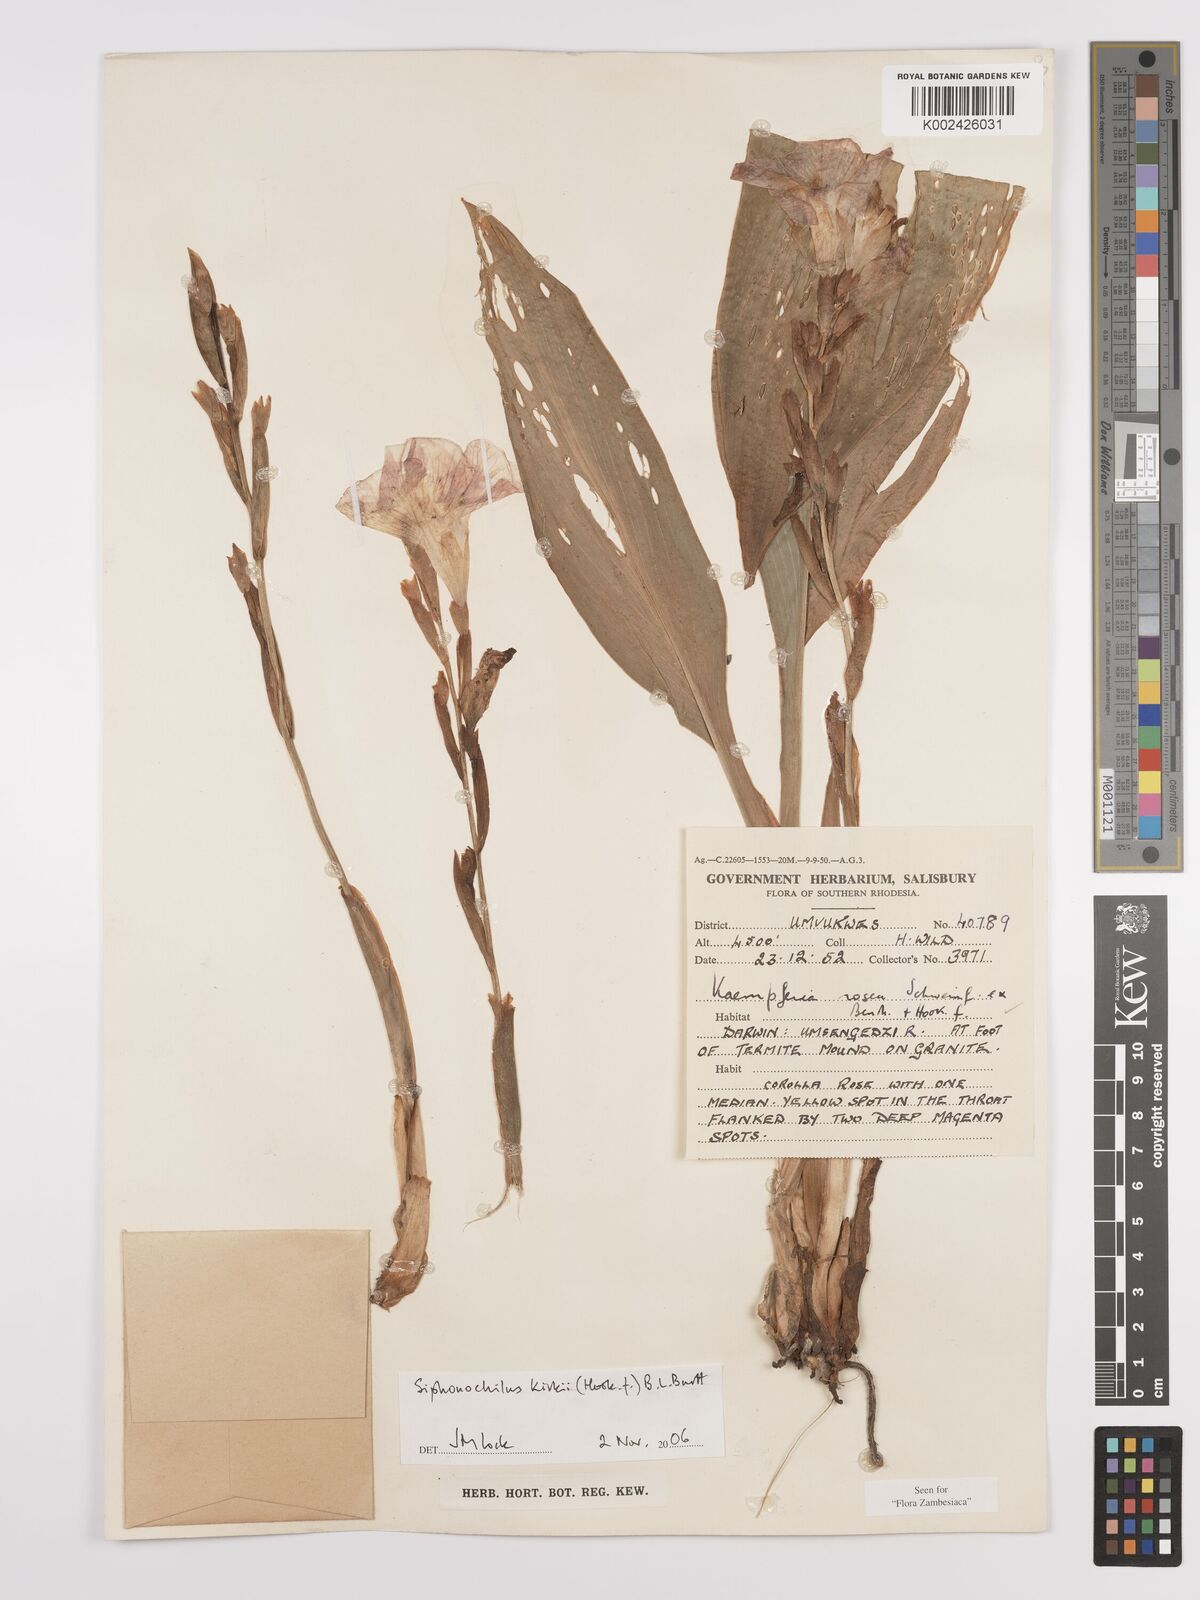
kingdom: Plantae
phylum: Tracheophyta
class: Liliopsida
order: Zingiberales
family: Zingiberaceae
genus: Siphonochilus
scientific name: Siphonochilus kirkii
